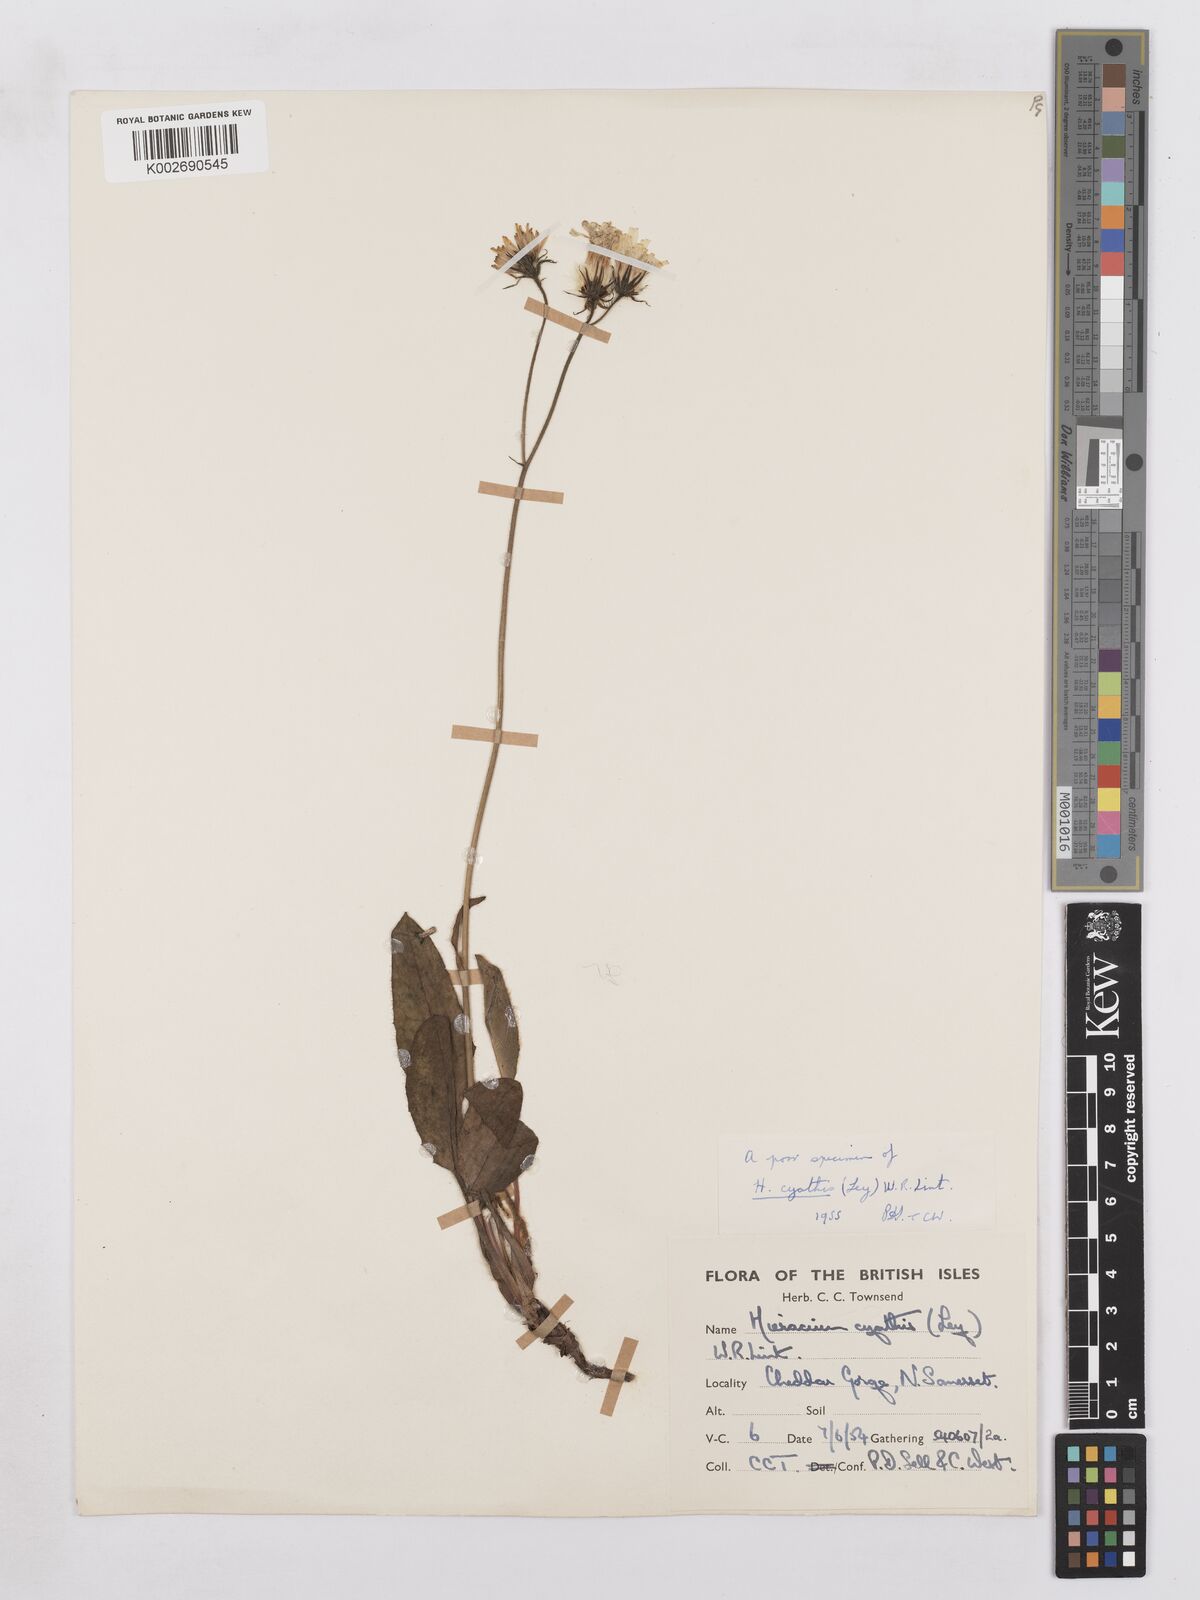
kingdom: Plantae
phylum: Tracheophyta
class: Magnoliopsida
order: Asterales
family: Asteraceae
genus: Hieracium
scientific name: Hieracium hypochoeroides
